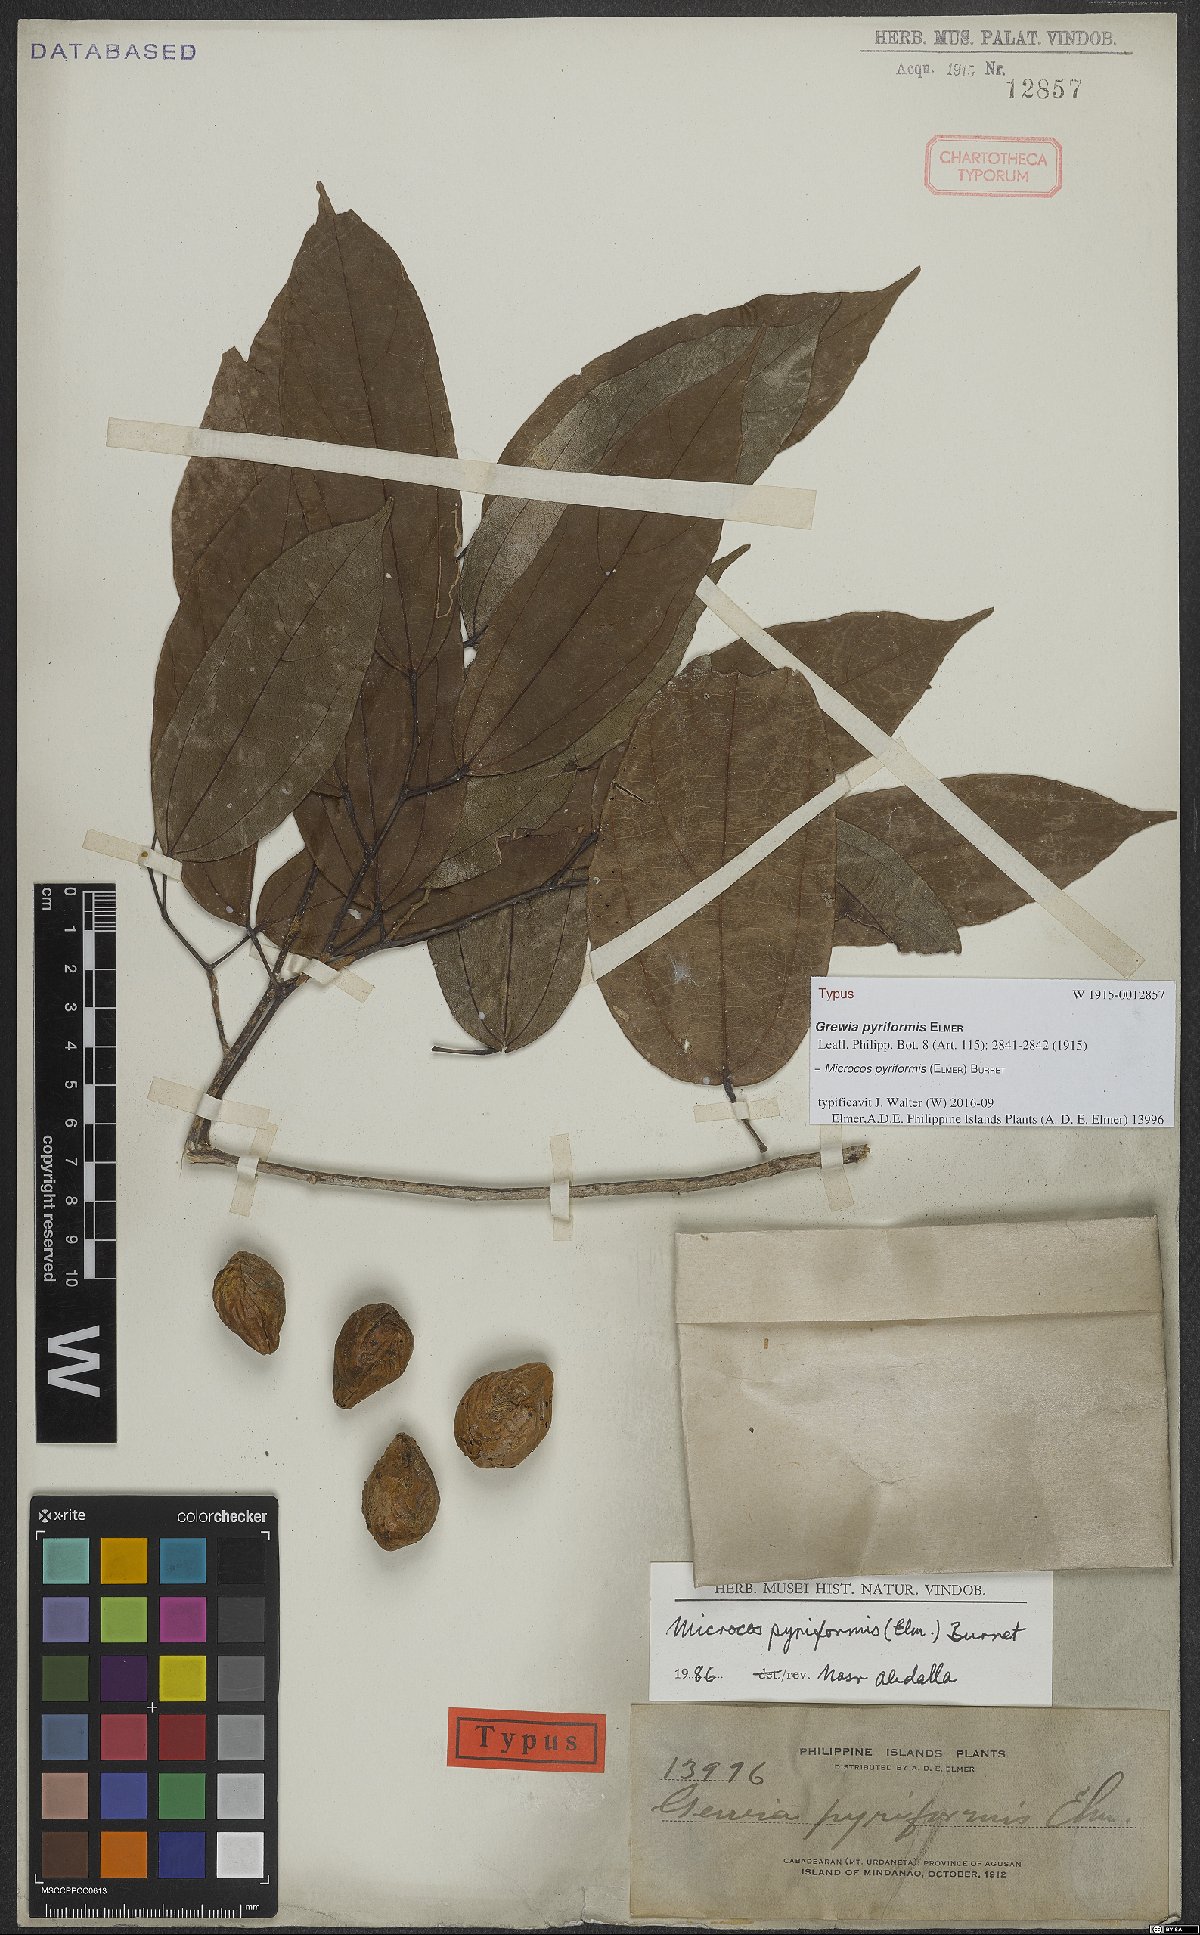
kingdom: Plantae
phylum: Tracheophyta
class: Magnoliopsida
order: Malvales
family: Malvaceae
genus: Microcos
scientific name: Microcos triflora
